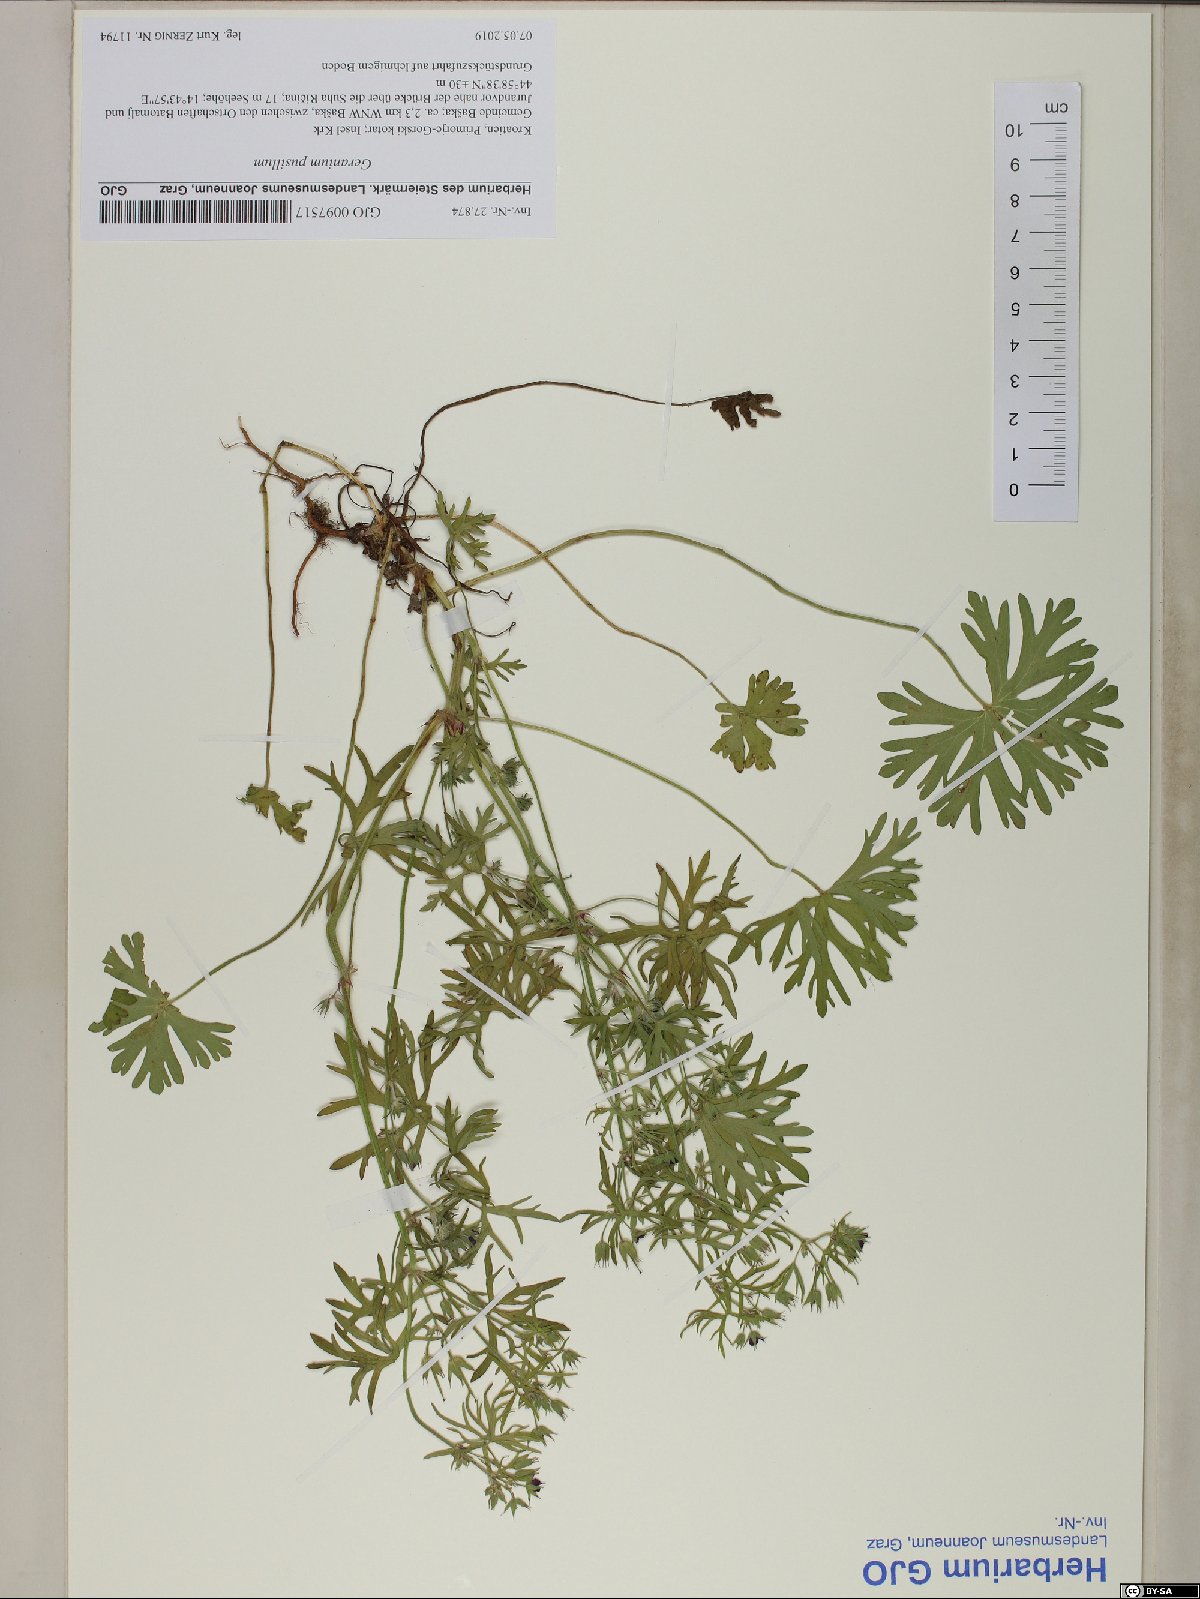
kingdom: Plantae
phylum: Tracheophyta
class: Magnoliopsida
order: Geraniales
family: Geraniaceae
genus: Geranium
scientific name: Geranium dissectum
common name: Cut-leaved crane's-bill
